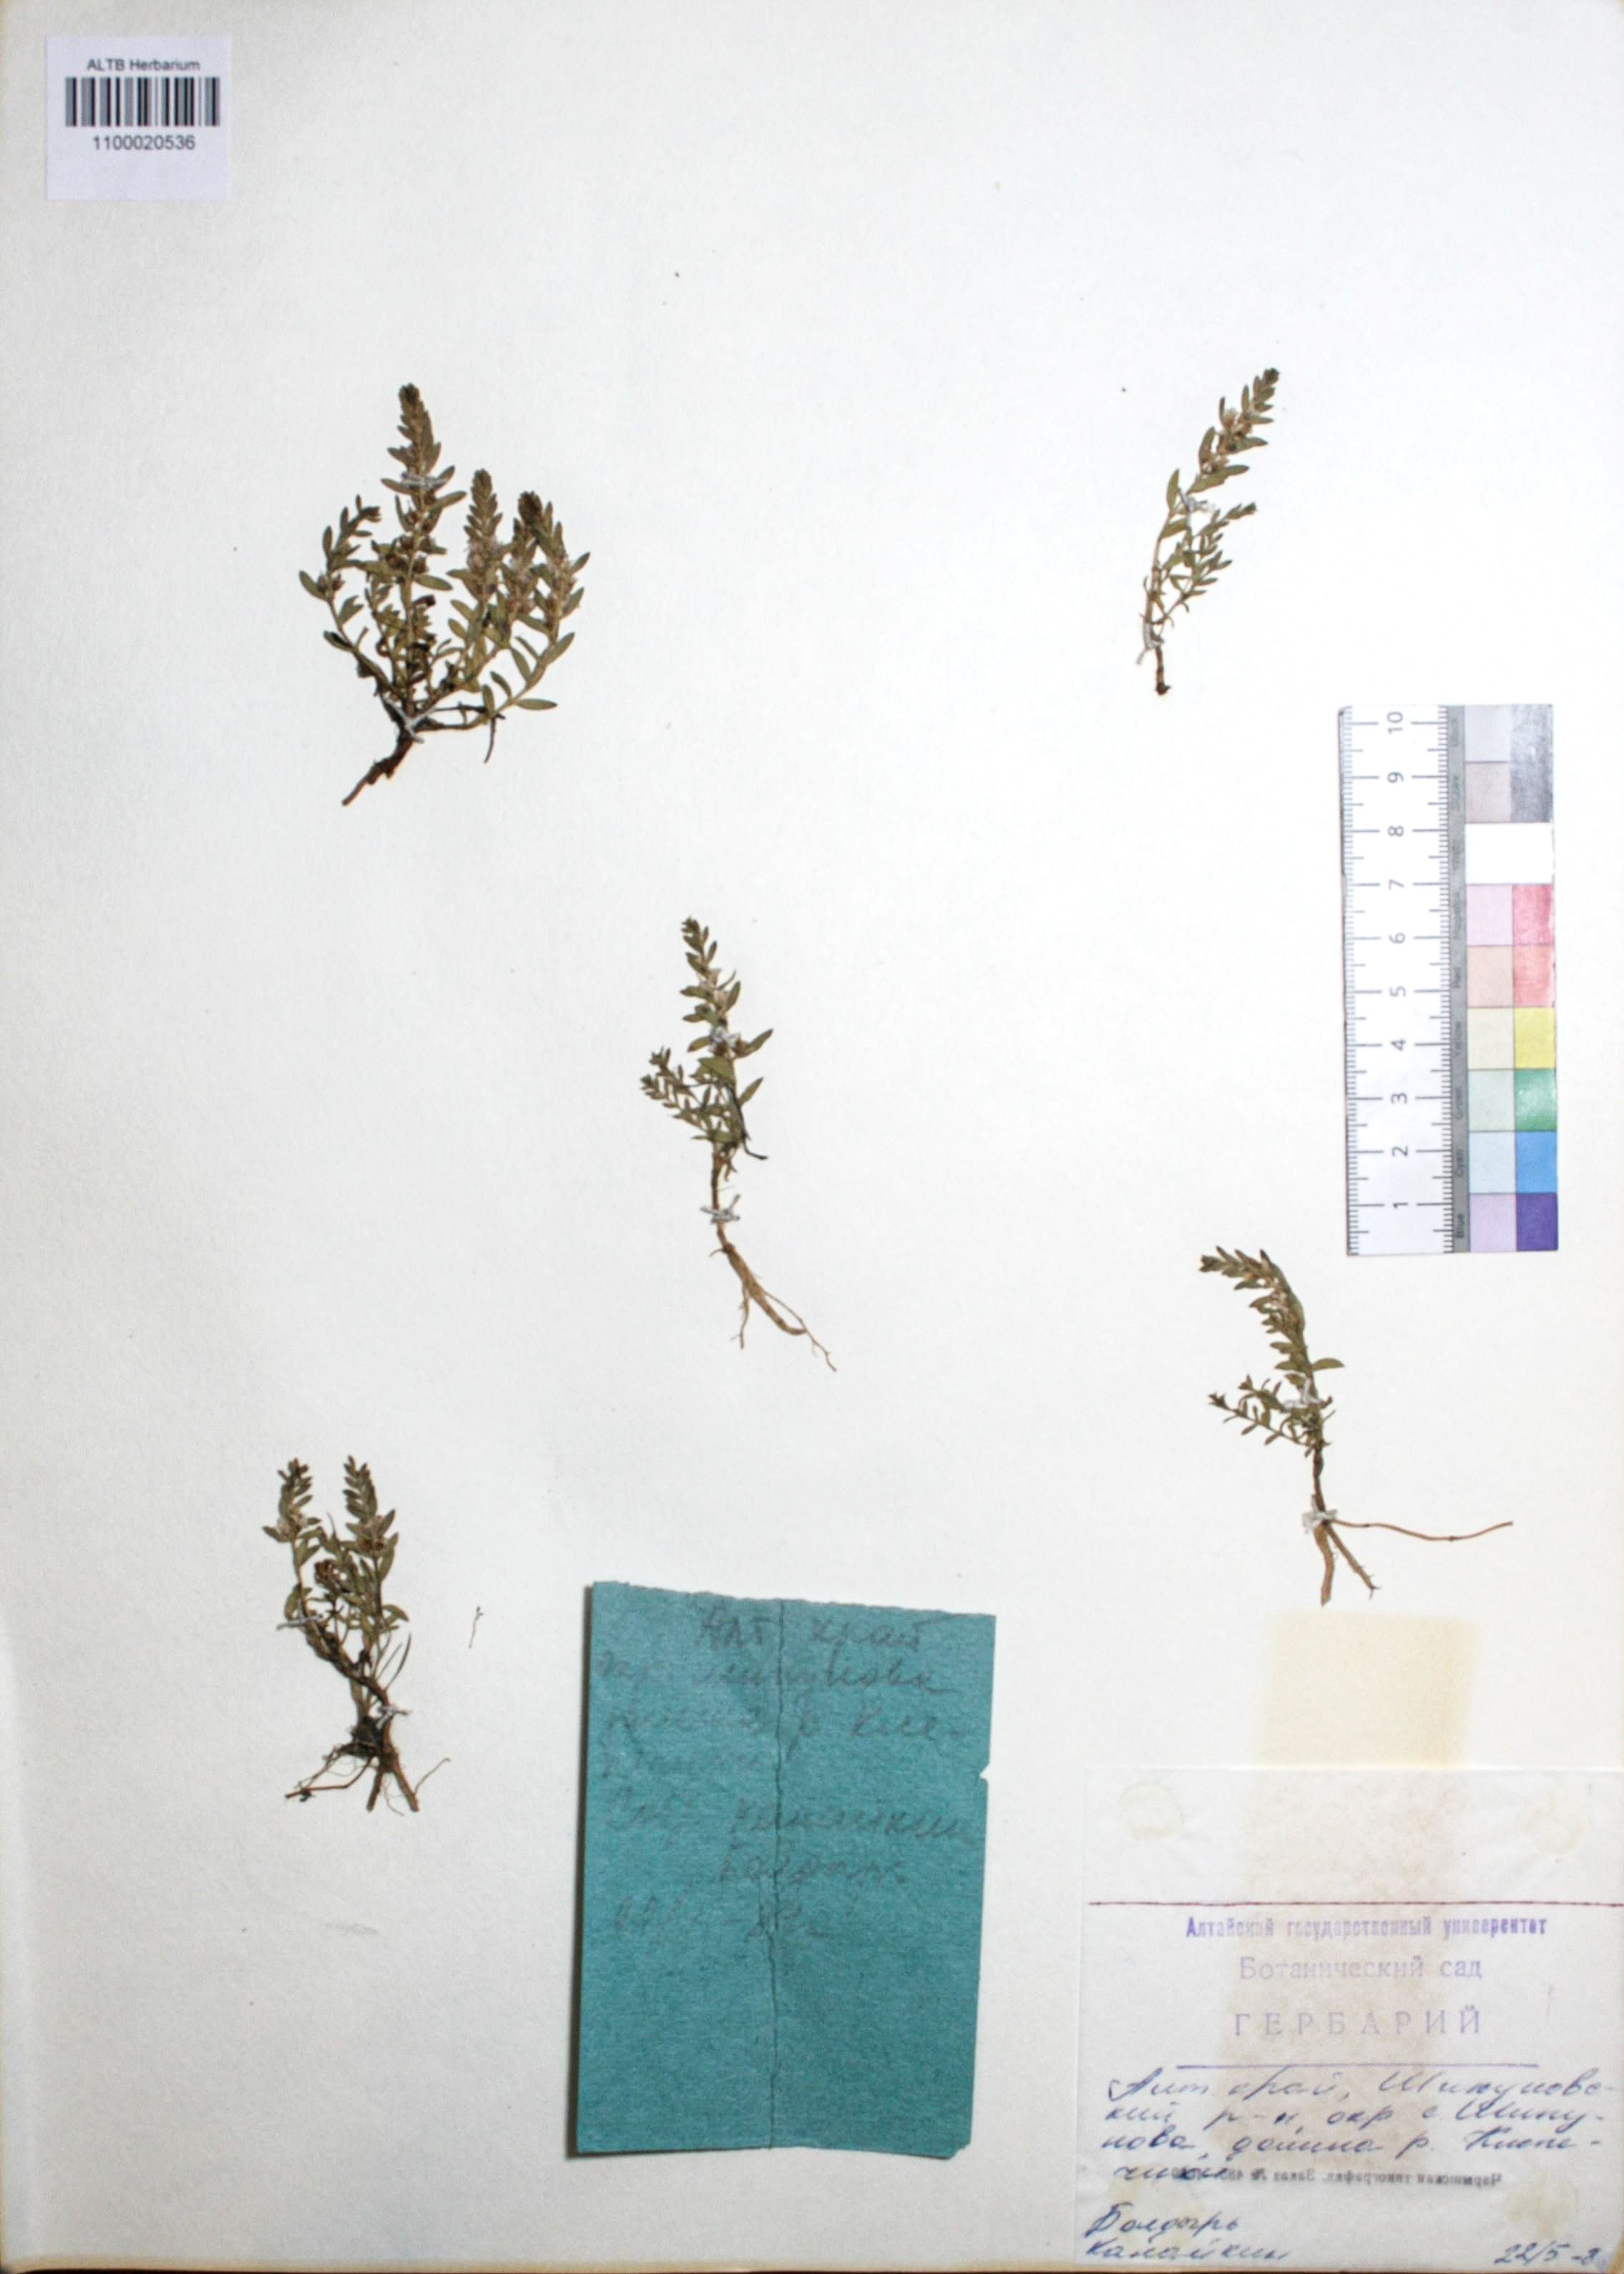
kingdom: Plantae
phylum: Tracheophyta
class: Magnoliopsida
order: Ericales
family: Primulaceae
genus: Lysimachia
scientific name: Lysimachia maritima
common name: Sea milkwort
